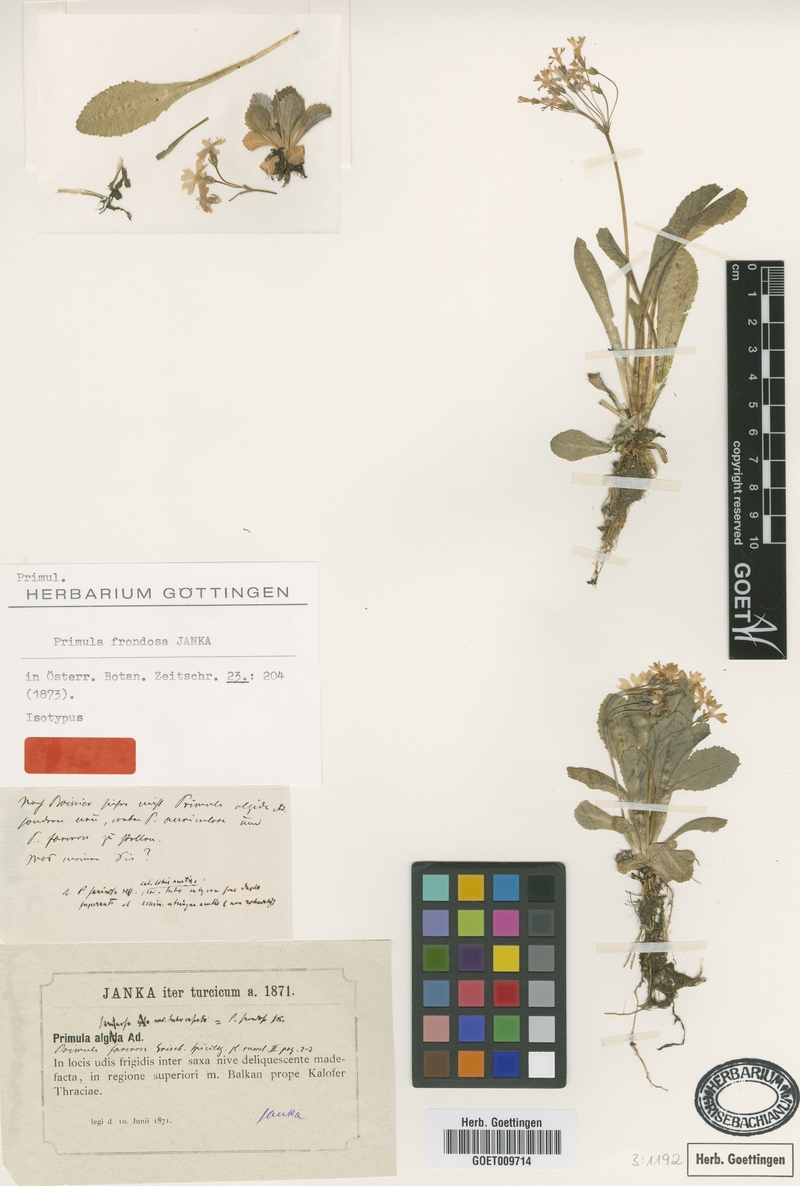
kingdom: Plantae
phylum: Tracheophyta
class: Magnoliopsida
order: Ericales
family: Primulaceae
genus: Primula
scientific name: Primula frondosa
